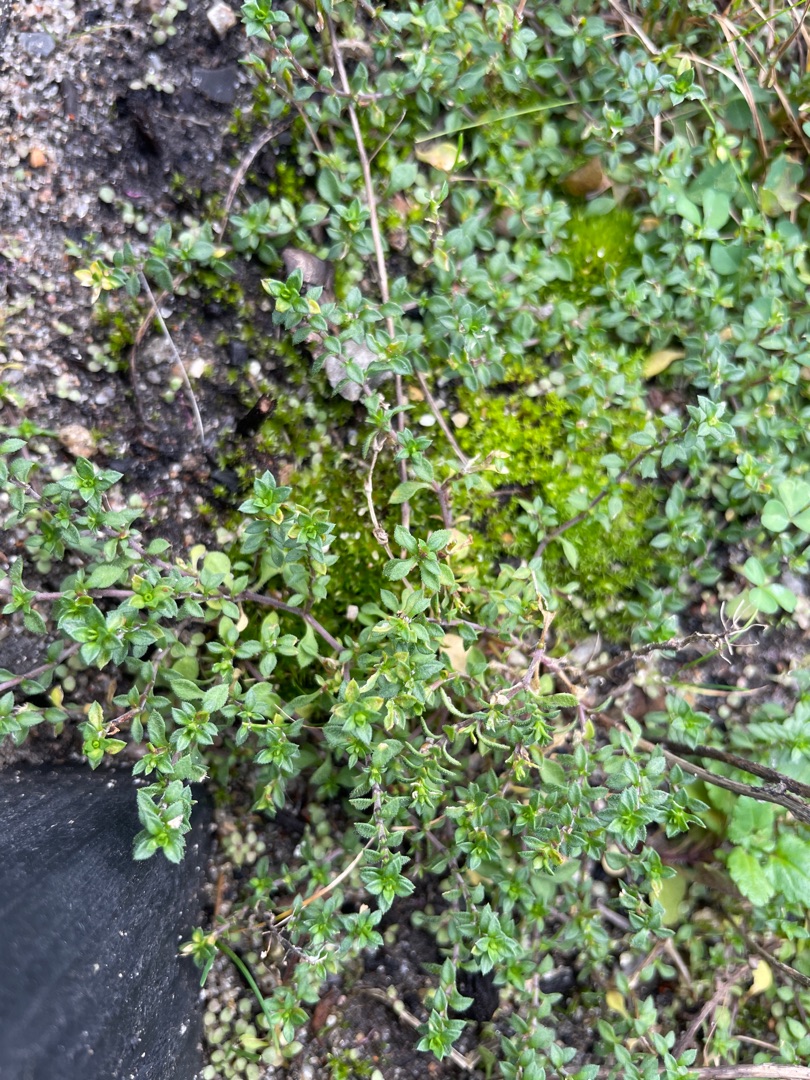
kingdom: Plantae
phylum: Tracheophyta
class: Magnoliopsida
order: Caryophyllales
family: Caryophyllaceae
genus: Arenaria
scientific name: Arenaria serpyllifolia
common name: Almindelig markarve
